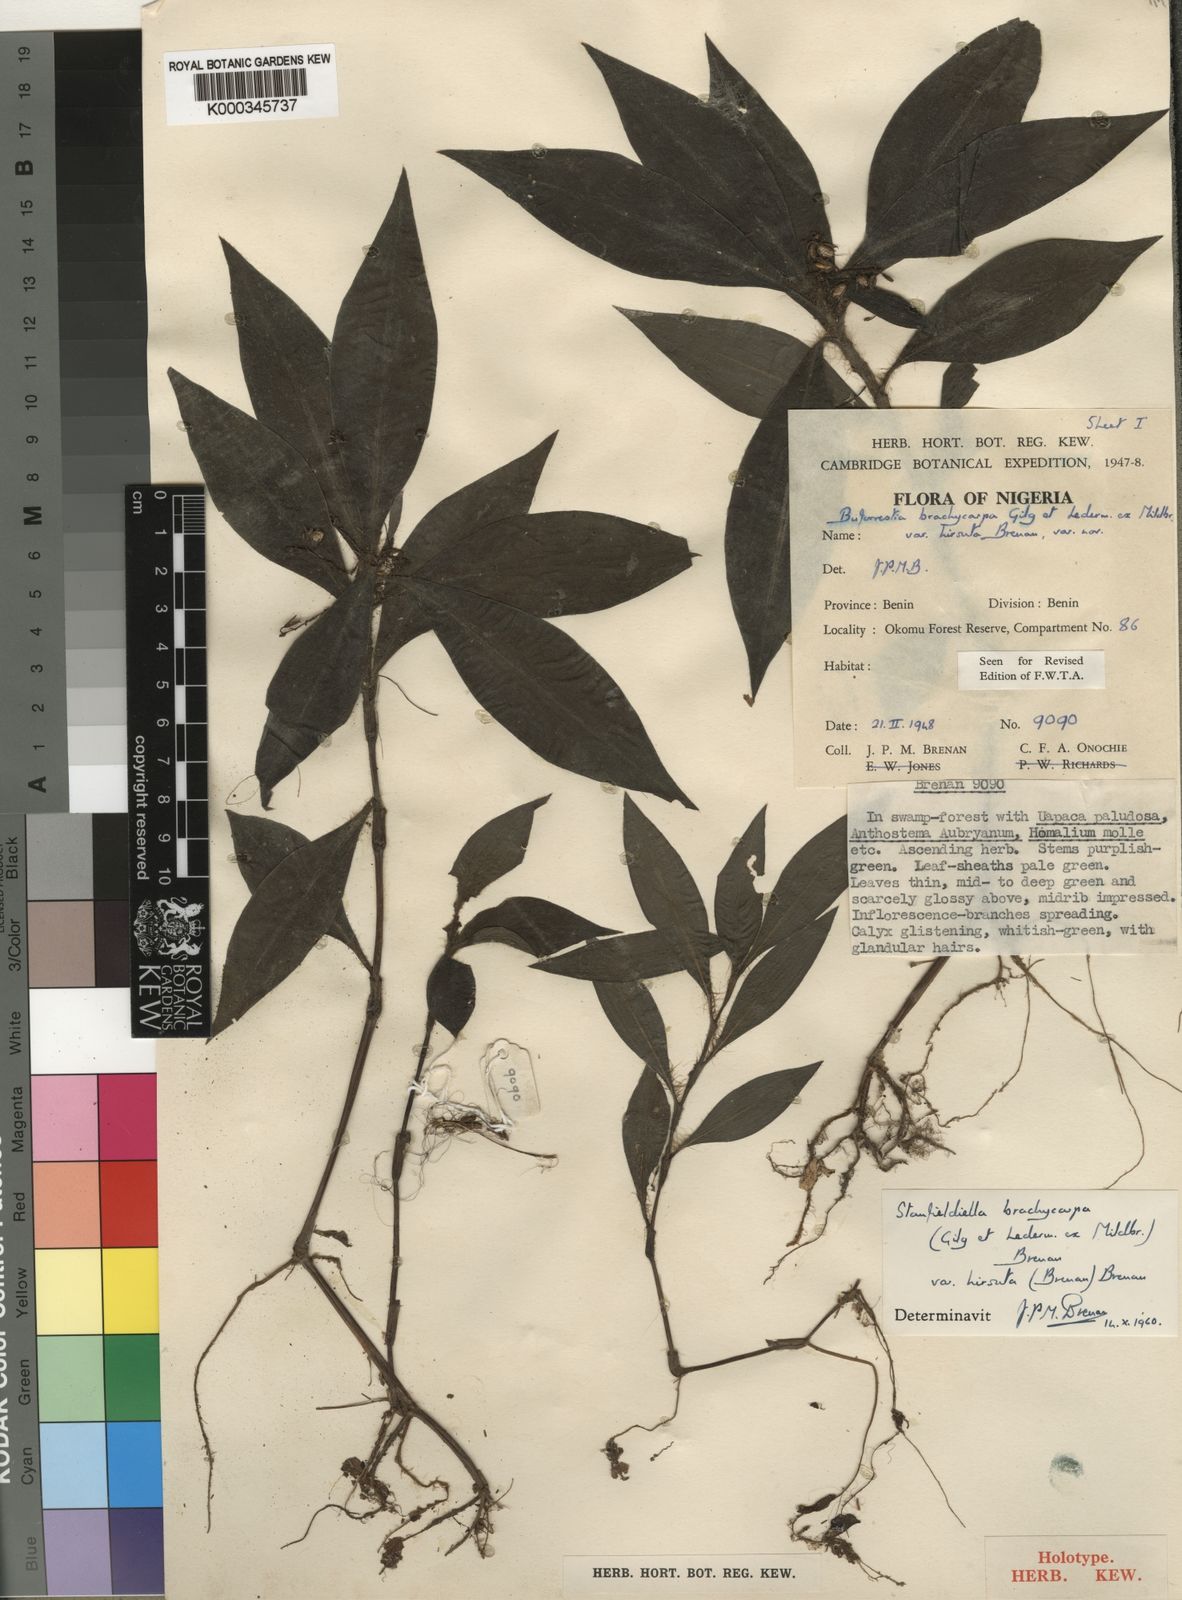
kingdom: Plantae
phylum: Tracheophyta
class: Liliopsida
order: Commelinales
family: Commelinaceae
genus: Stanfieldiella
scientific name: Stanfieldiella brachycarpa
